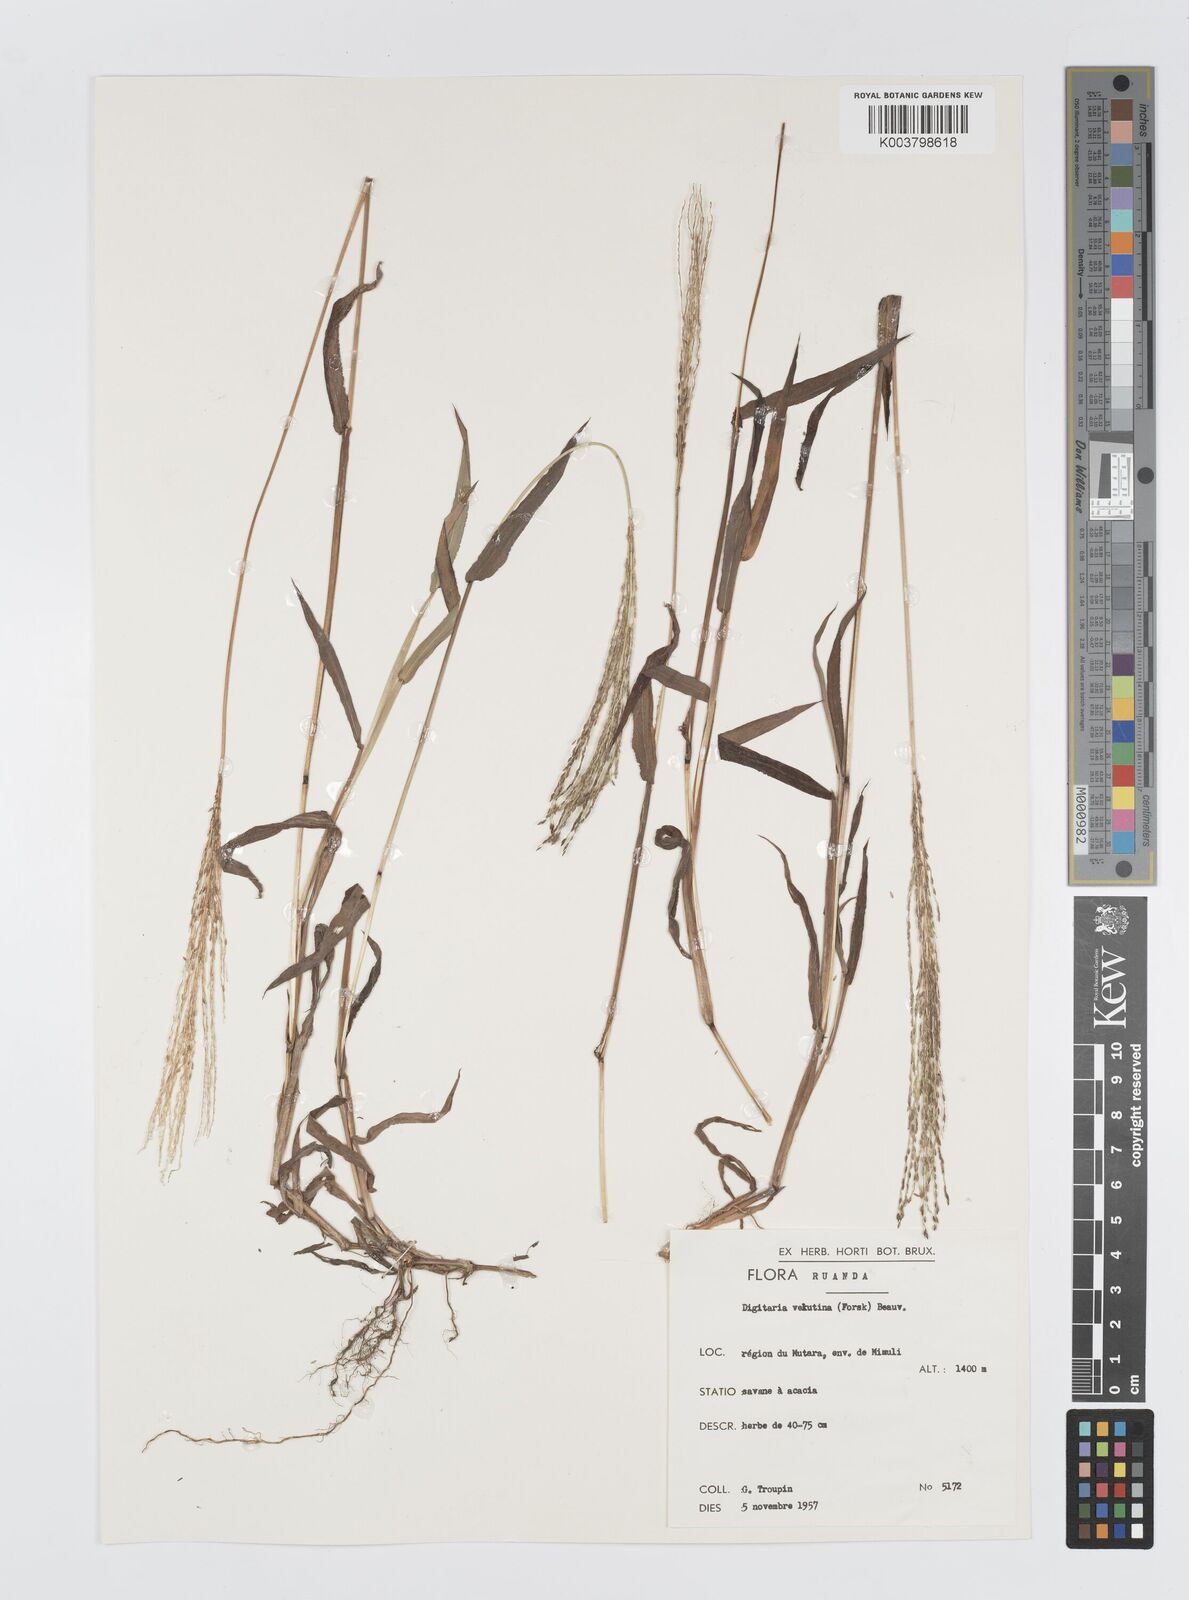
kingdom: Plantae
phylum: Tracheophyta
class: Liliopsida
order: Poales
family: Poaceae
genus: Digitaria
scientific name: Digitaria velutina
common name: Long-plume finger grass
